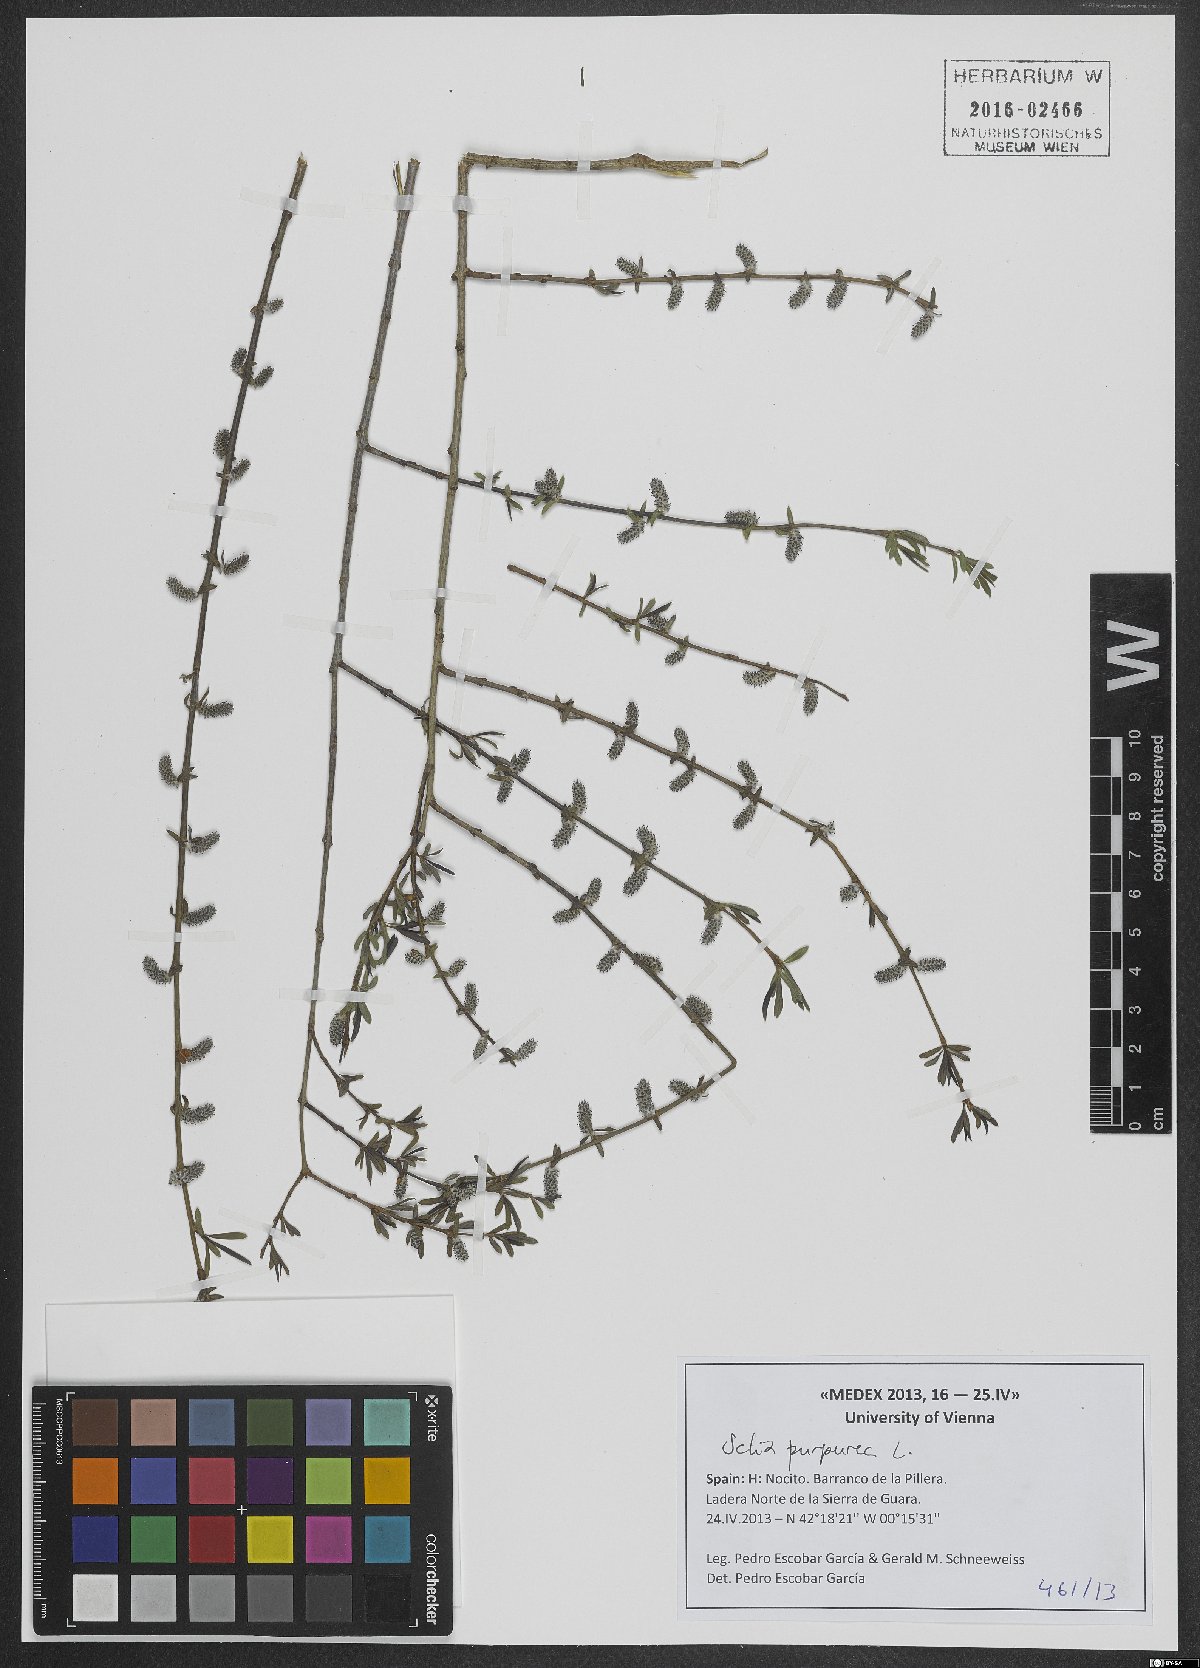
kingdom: Plantae
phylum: Tracheophyta
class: Magnoliopsida
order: Malpighiales
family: Salicaceae
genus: Salix
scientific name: Salix purpurea
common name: Purple willow
